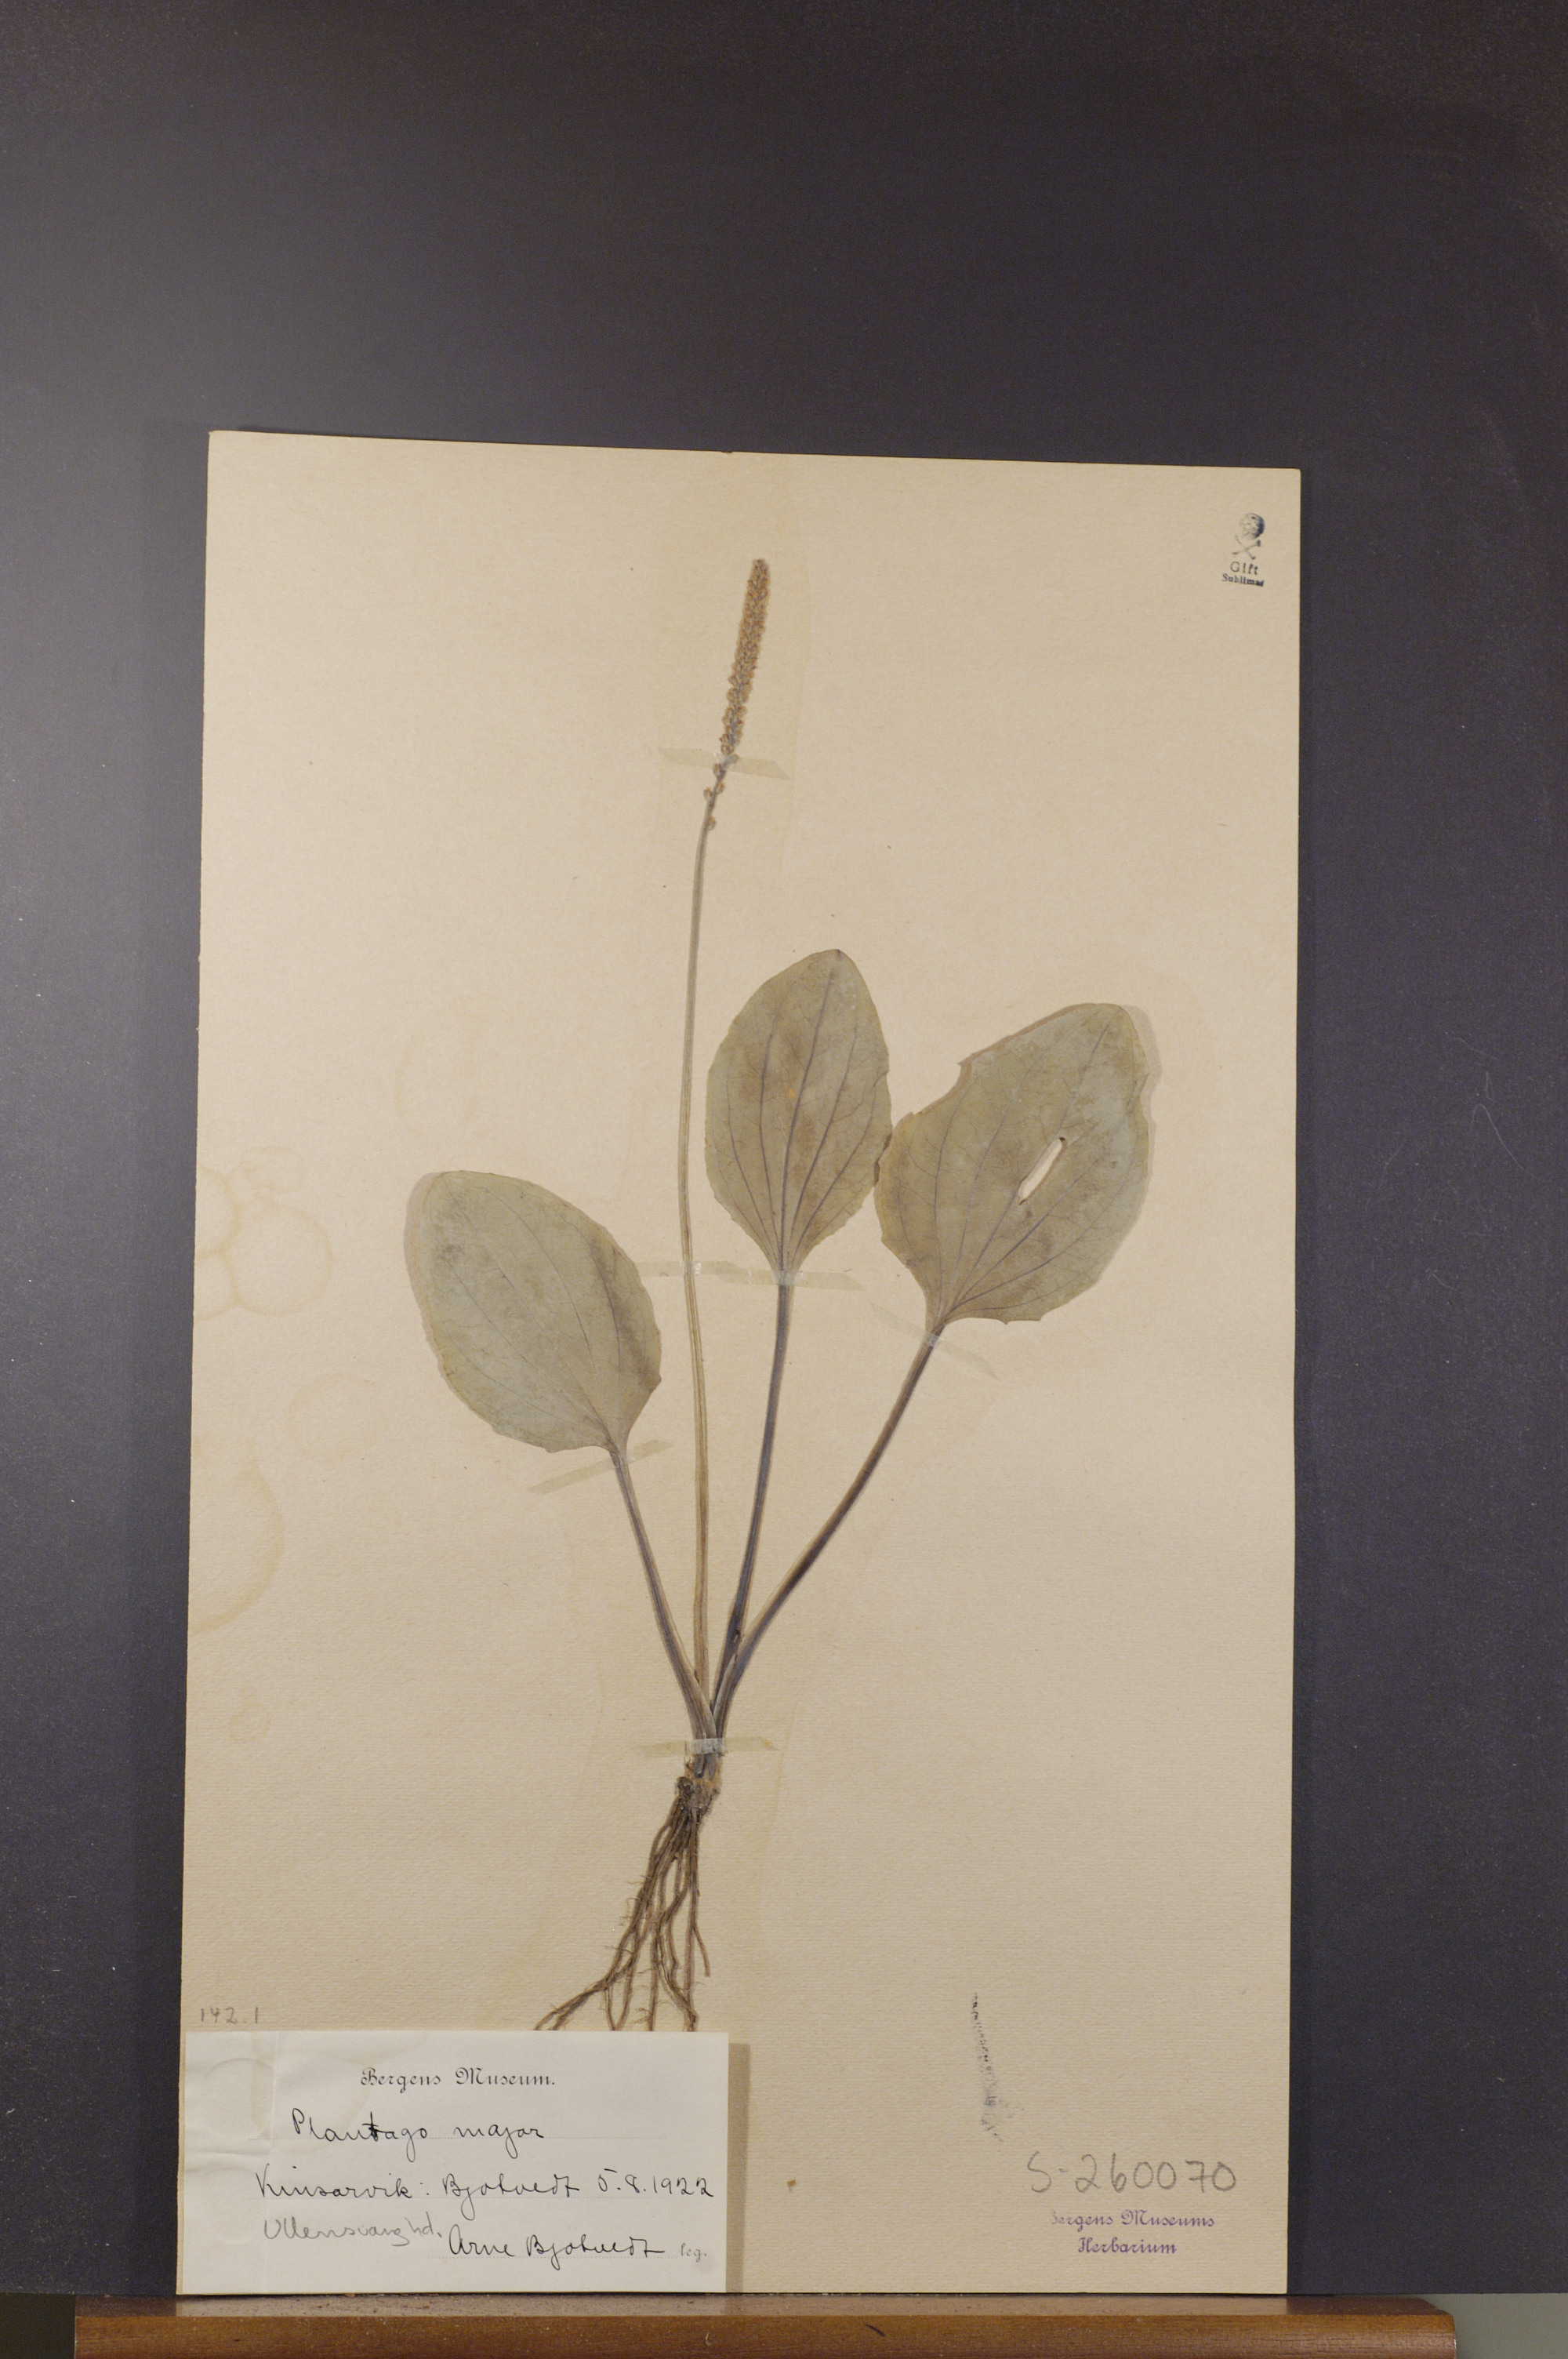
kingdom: Plantae
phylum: Tracheophyta
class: Magnoliopsida
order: Lamiales
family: Plantaginaceae
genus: Plantago
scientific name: Plantago major
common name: Common plantain
